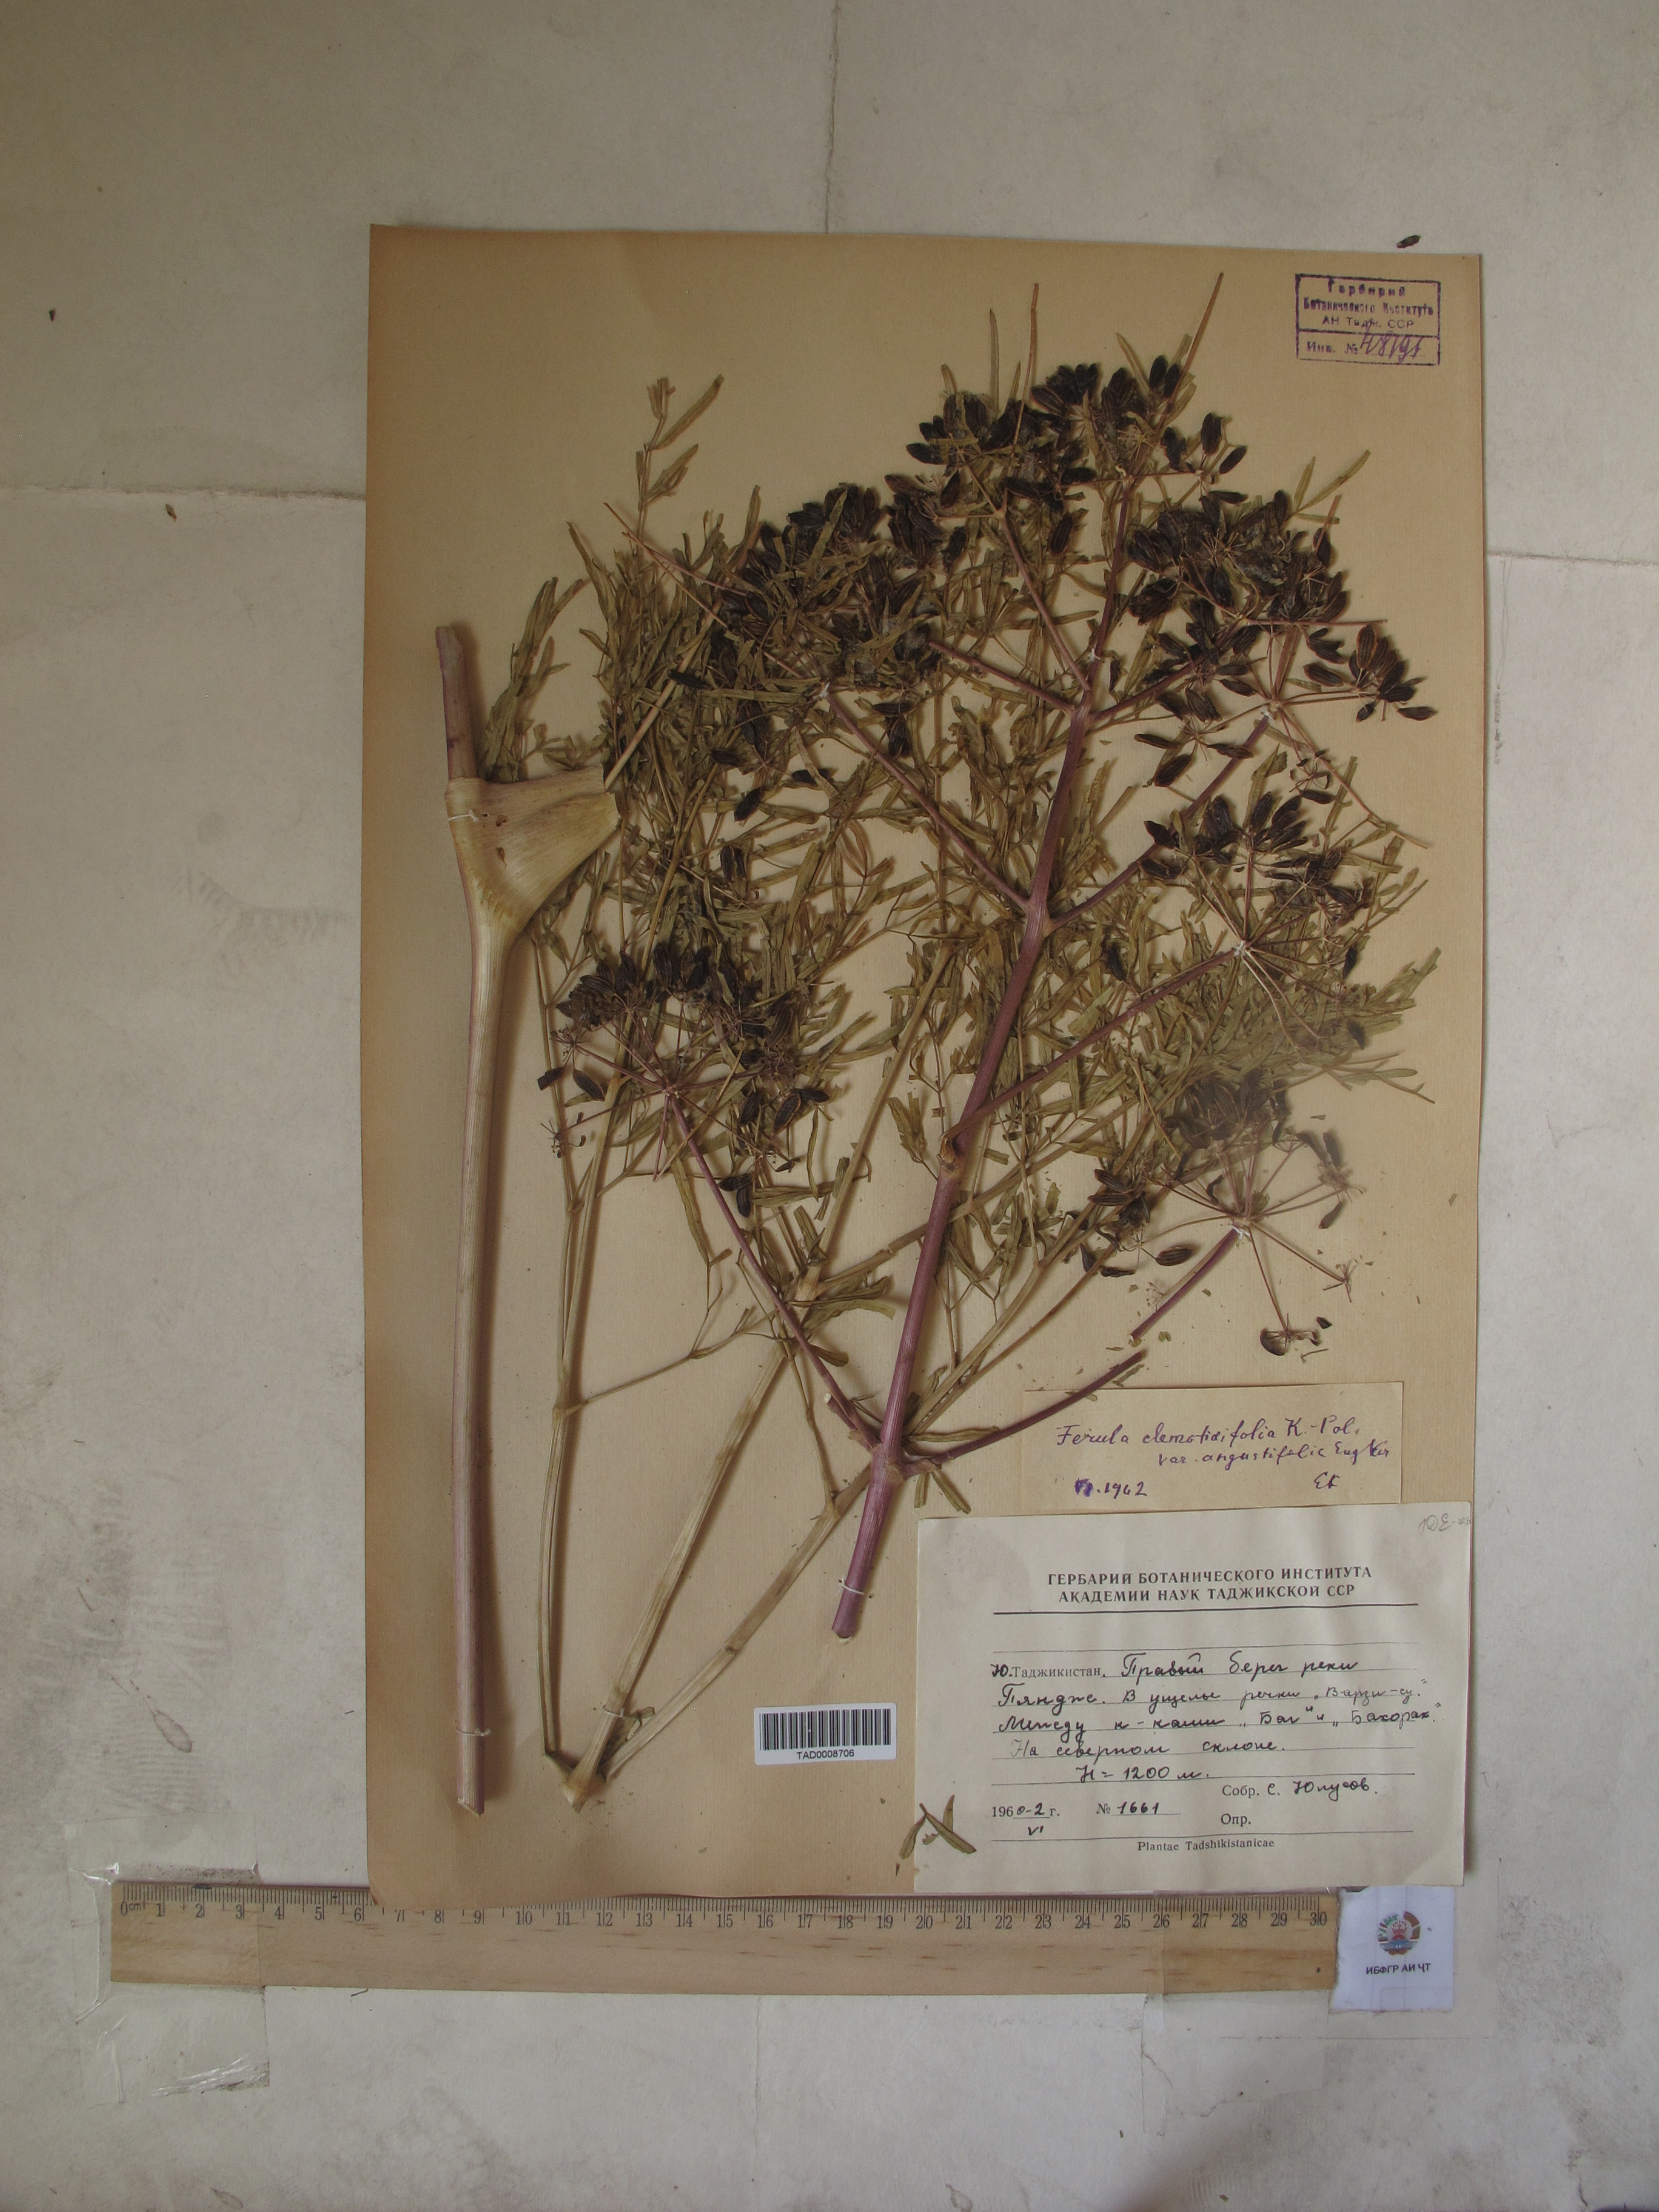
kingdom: Plantae
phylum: Tracheophyta
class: Magnoliopsida
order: Apiales
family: Apiaceae
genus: Ferula
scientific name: Ferula clematidifolia
